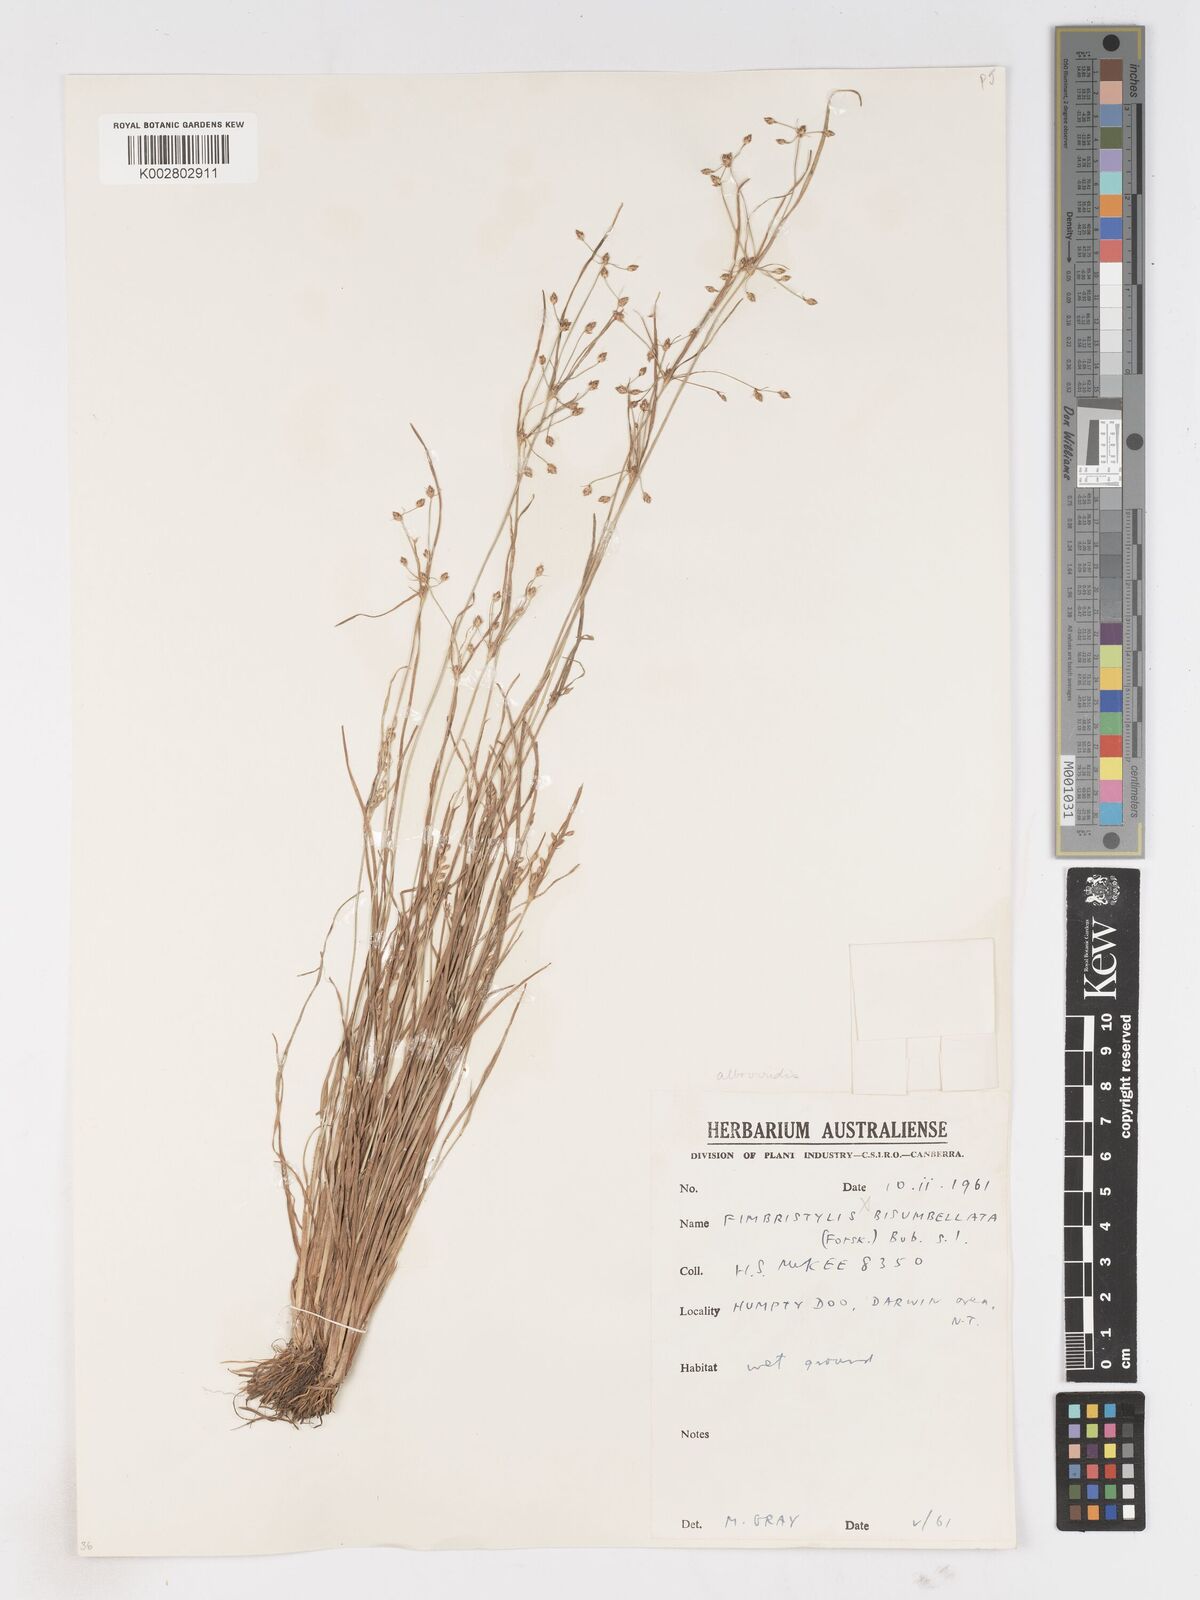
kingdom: Plantae
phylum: Tracheophyta
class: Liliopsida
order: Poales
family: Cyperaceae
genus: Fimbristylis
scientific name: Fimbristylis
